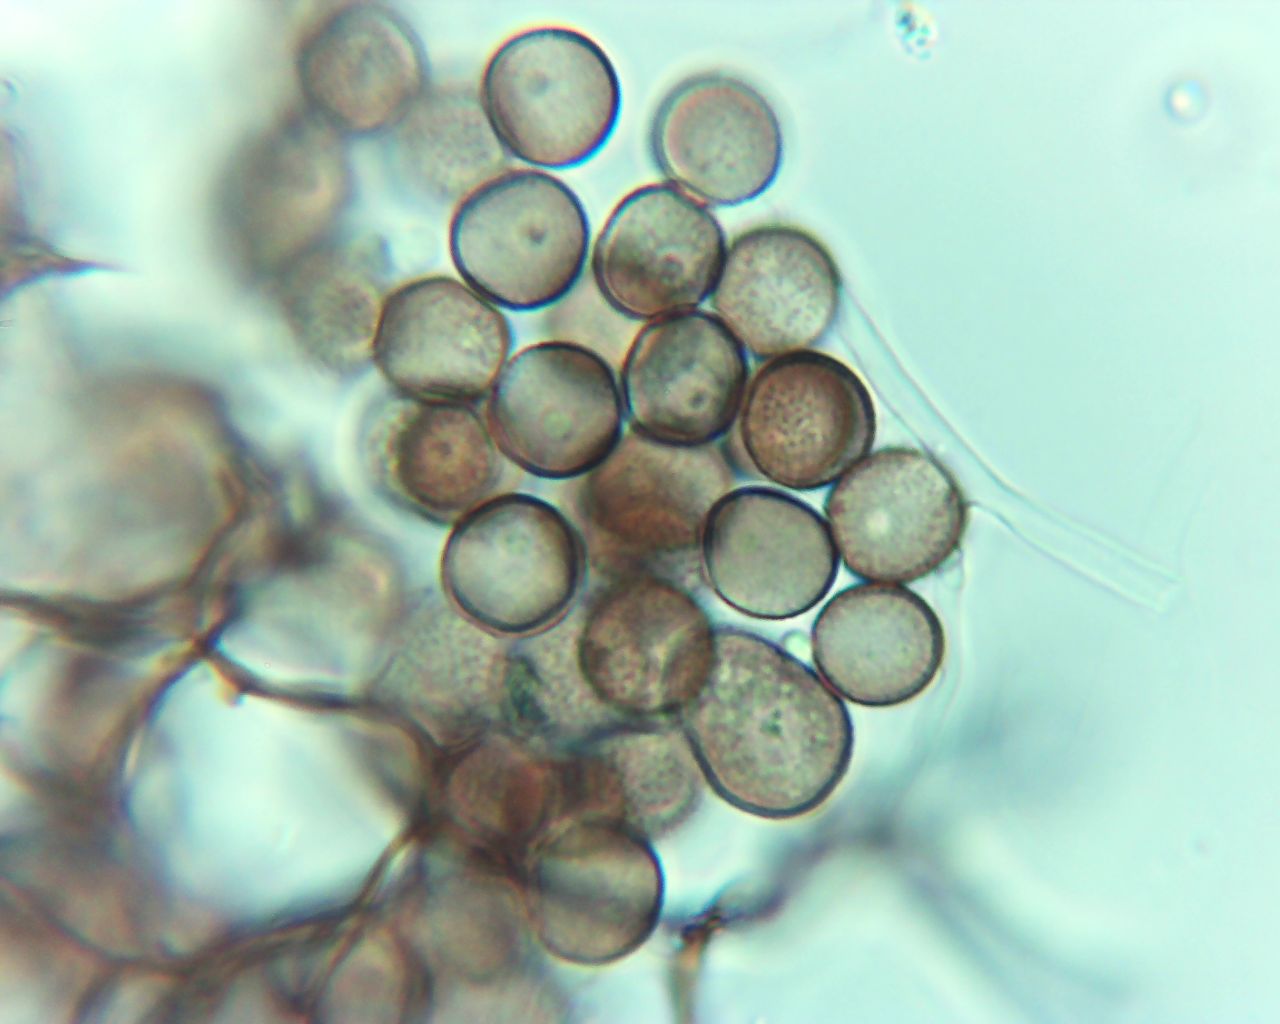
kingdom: Protozoa
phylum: Mycetozoa
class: Myxomycetes
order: Stemonitidales
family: Stemonitidaceae
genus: Comatricha
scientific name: Comatricha nigra
